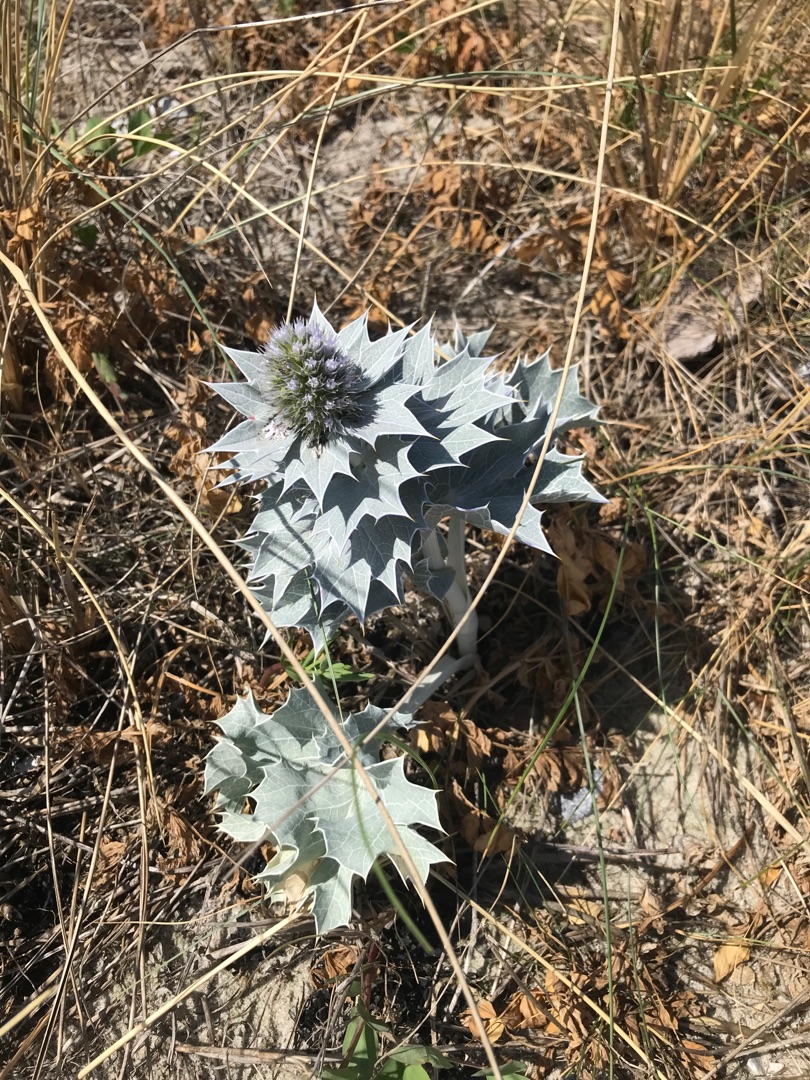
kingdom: Plantae
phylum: Tracheophyta
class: Magnoliopsida
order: Apiales
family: Apiaceae
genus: Eryngium
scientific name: Eryngium maritimum
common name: Strand-mandstro
